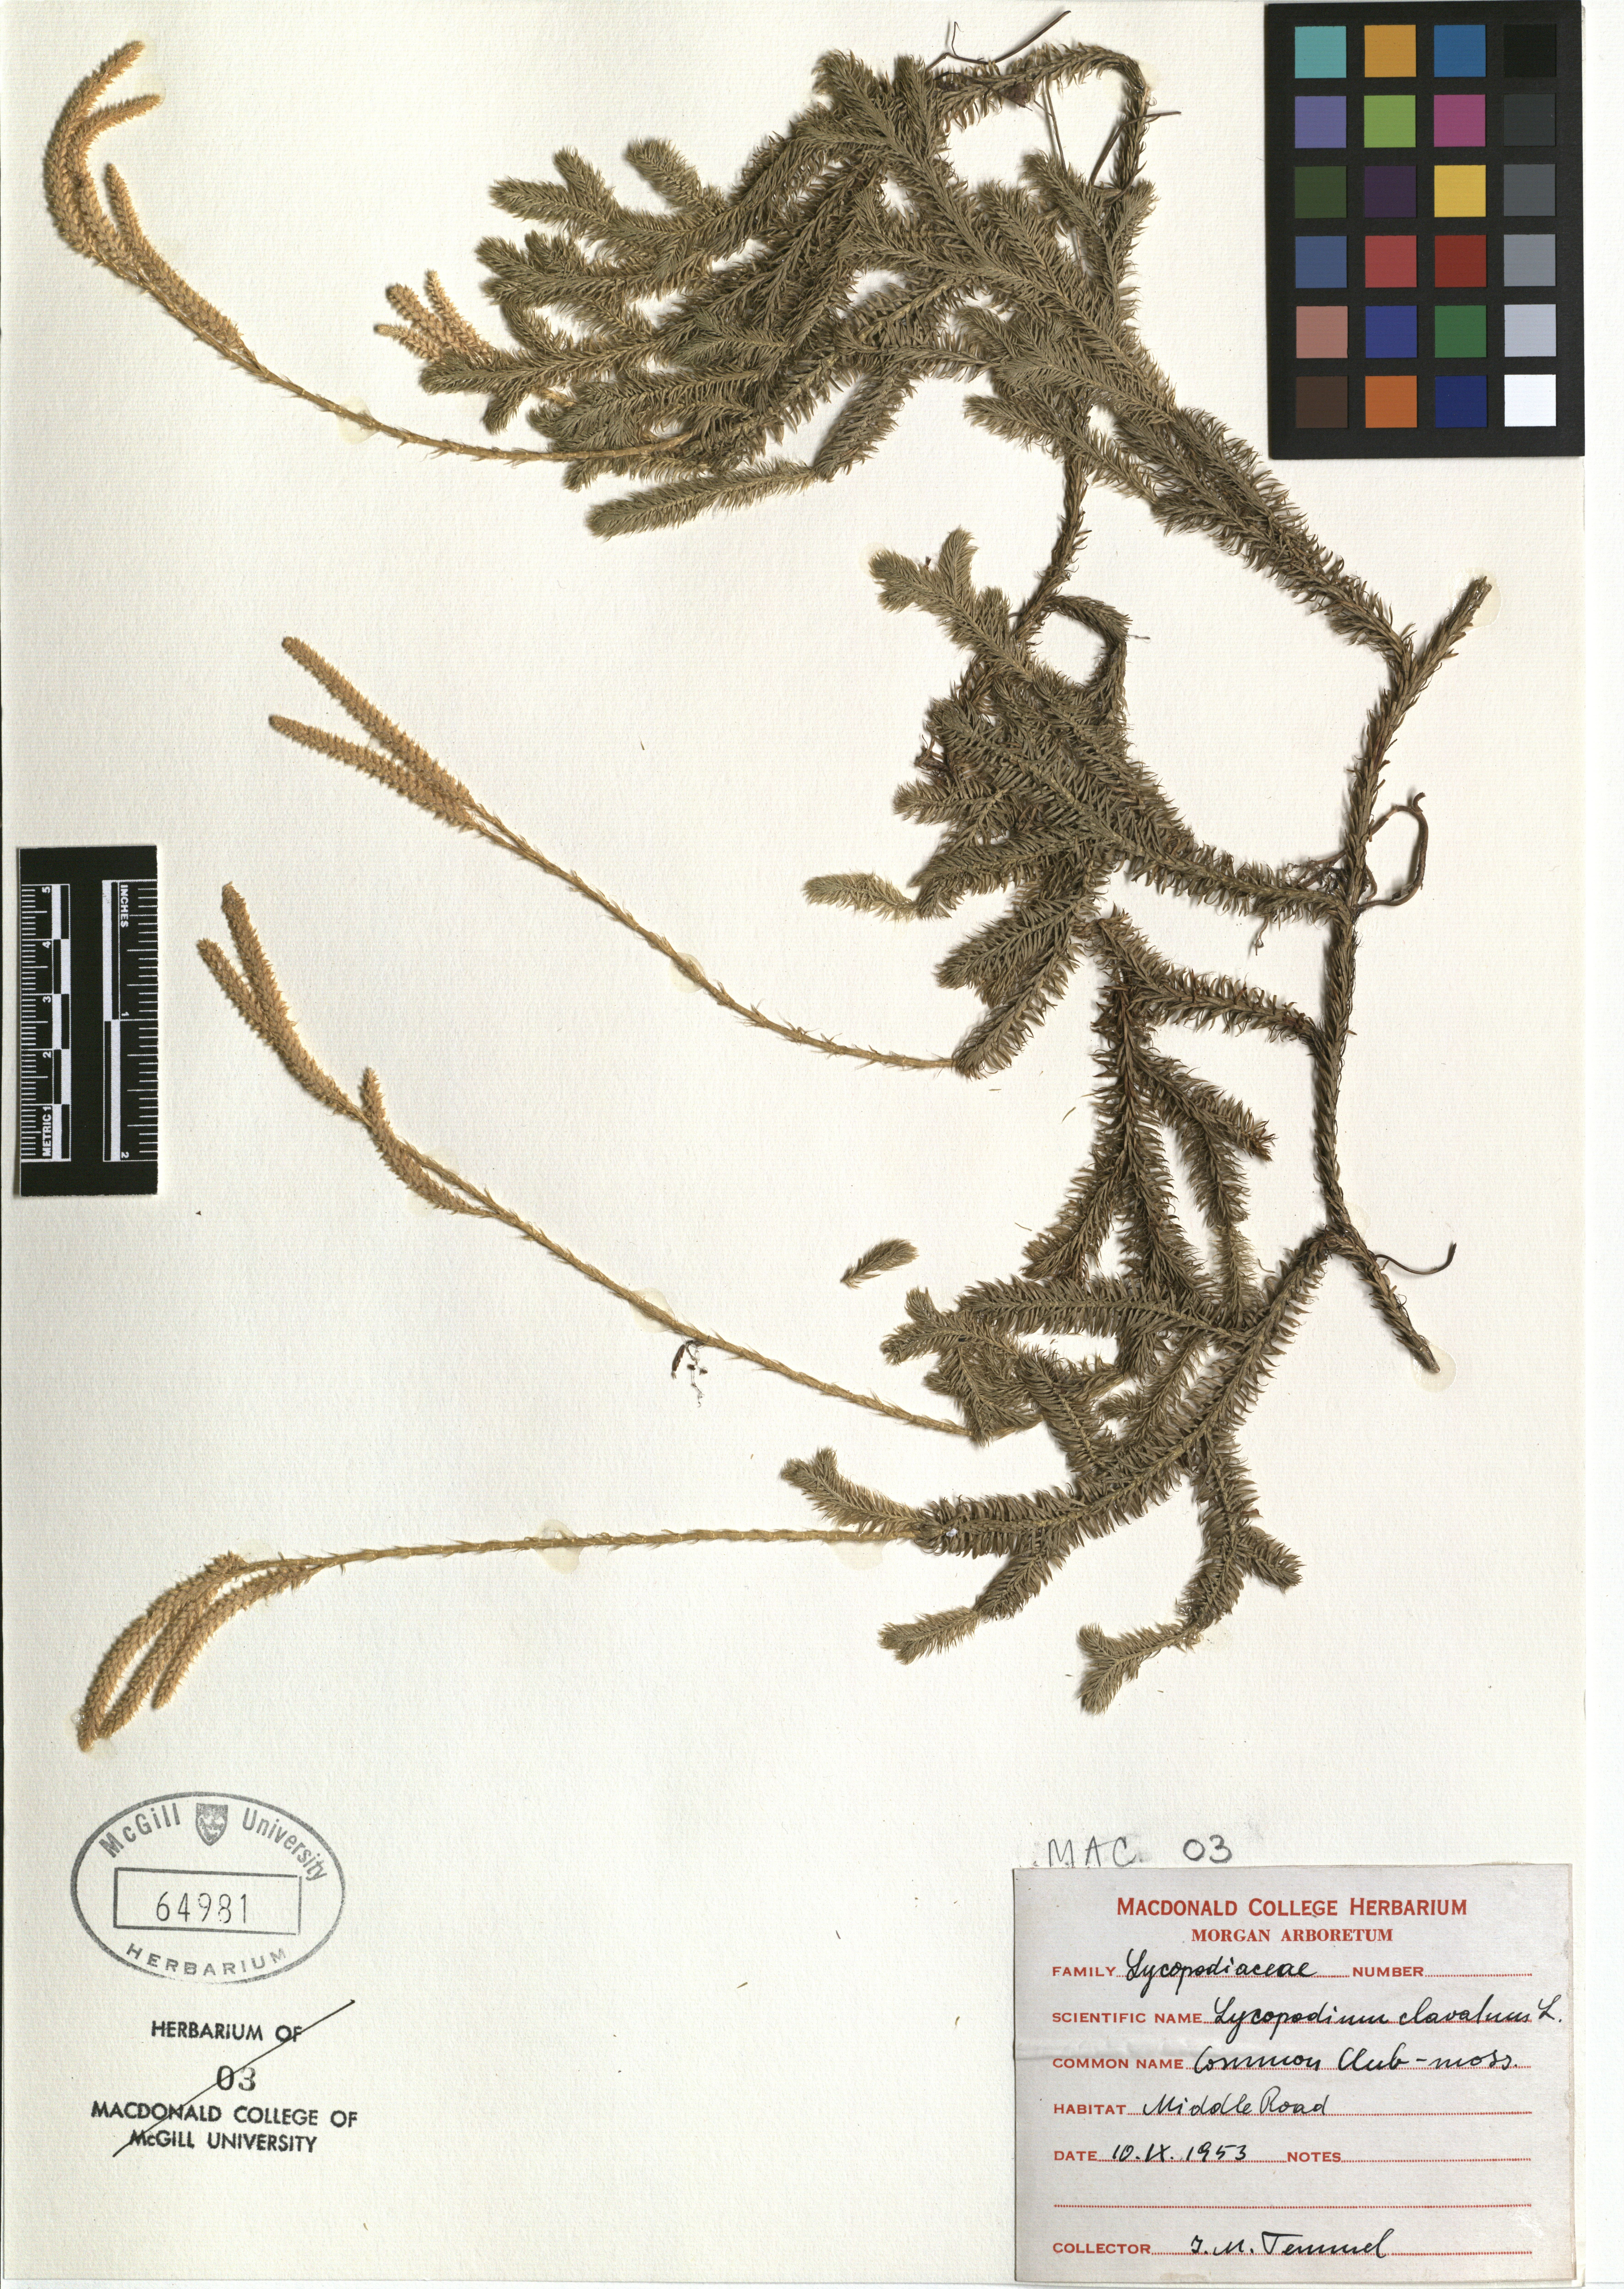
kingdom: Plantae
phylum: Tracheophyta
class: Lycopodiopsida
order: Lycopodiales
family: Lycopodiaceae
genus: Lycopodium
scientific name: Lycopodium clavatum
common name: Stag's-horn clubmoss
